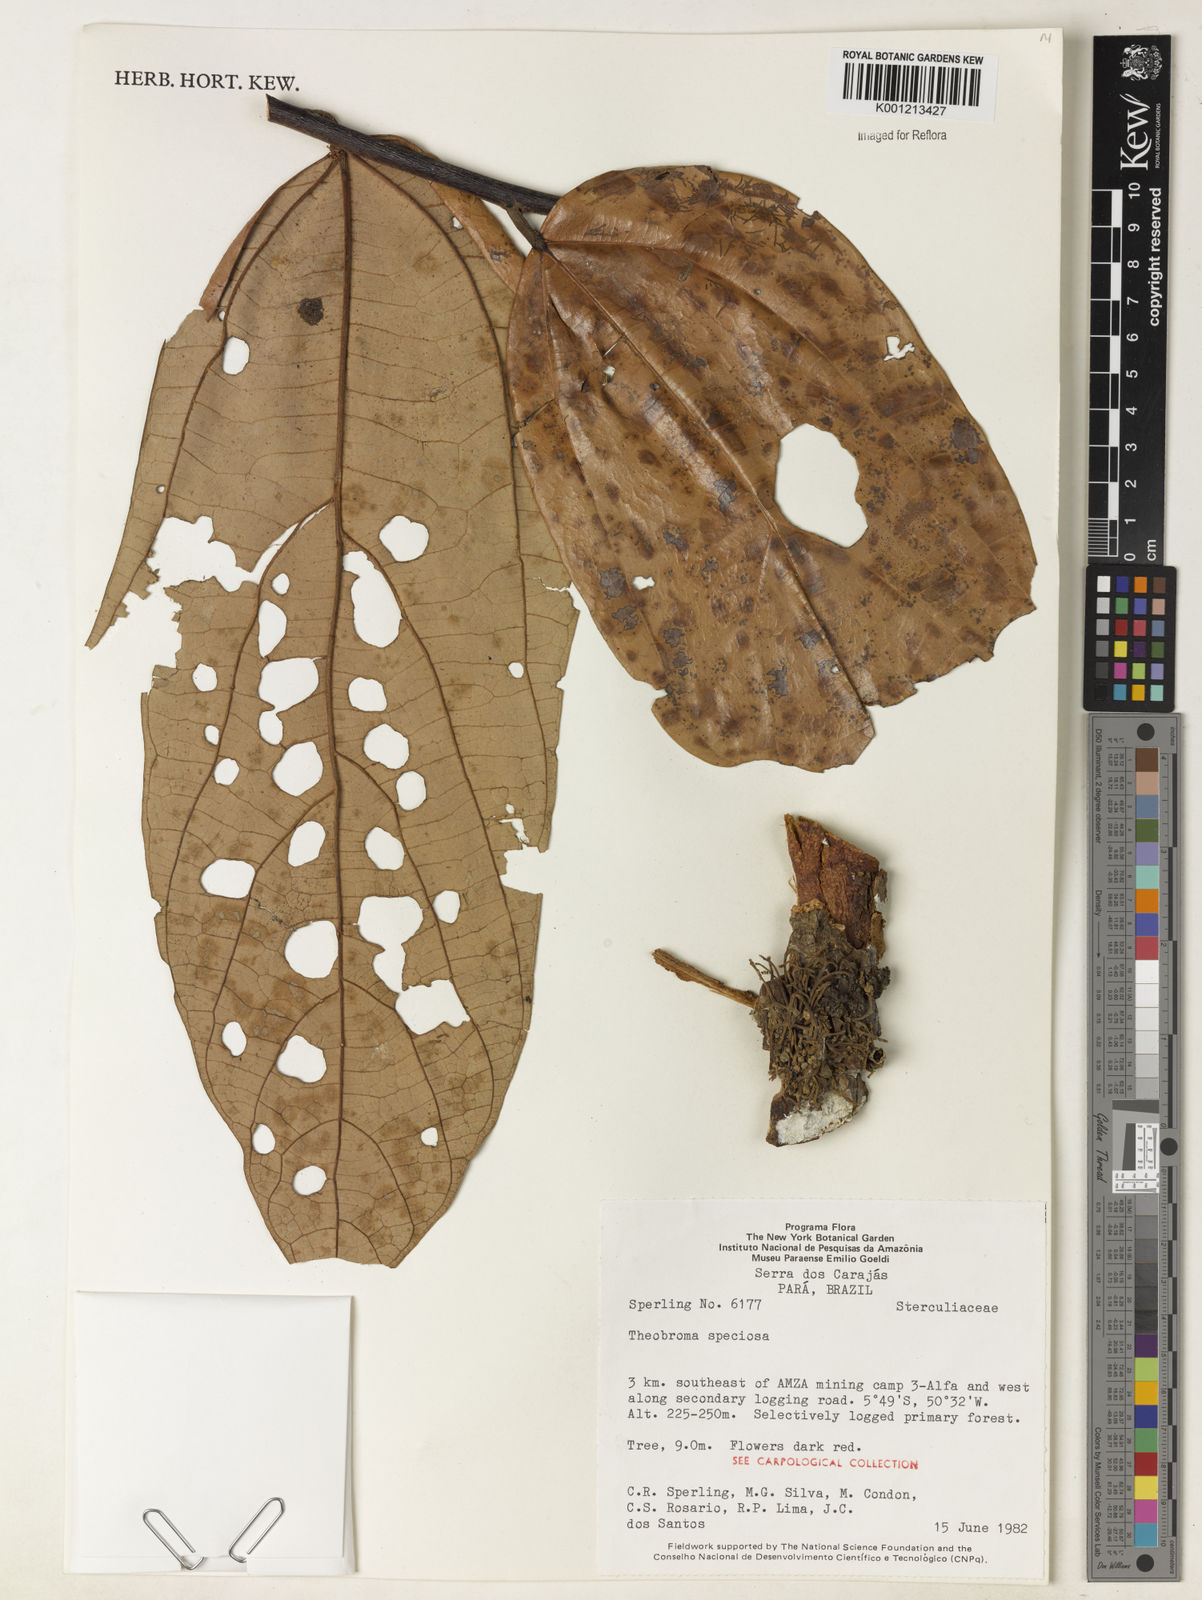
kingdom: Plantae
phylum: Tracheophyta
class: Magnoliopsida
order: Malvales
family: Malvaceae
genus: Theobroma
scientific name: Theobroma speciosum
